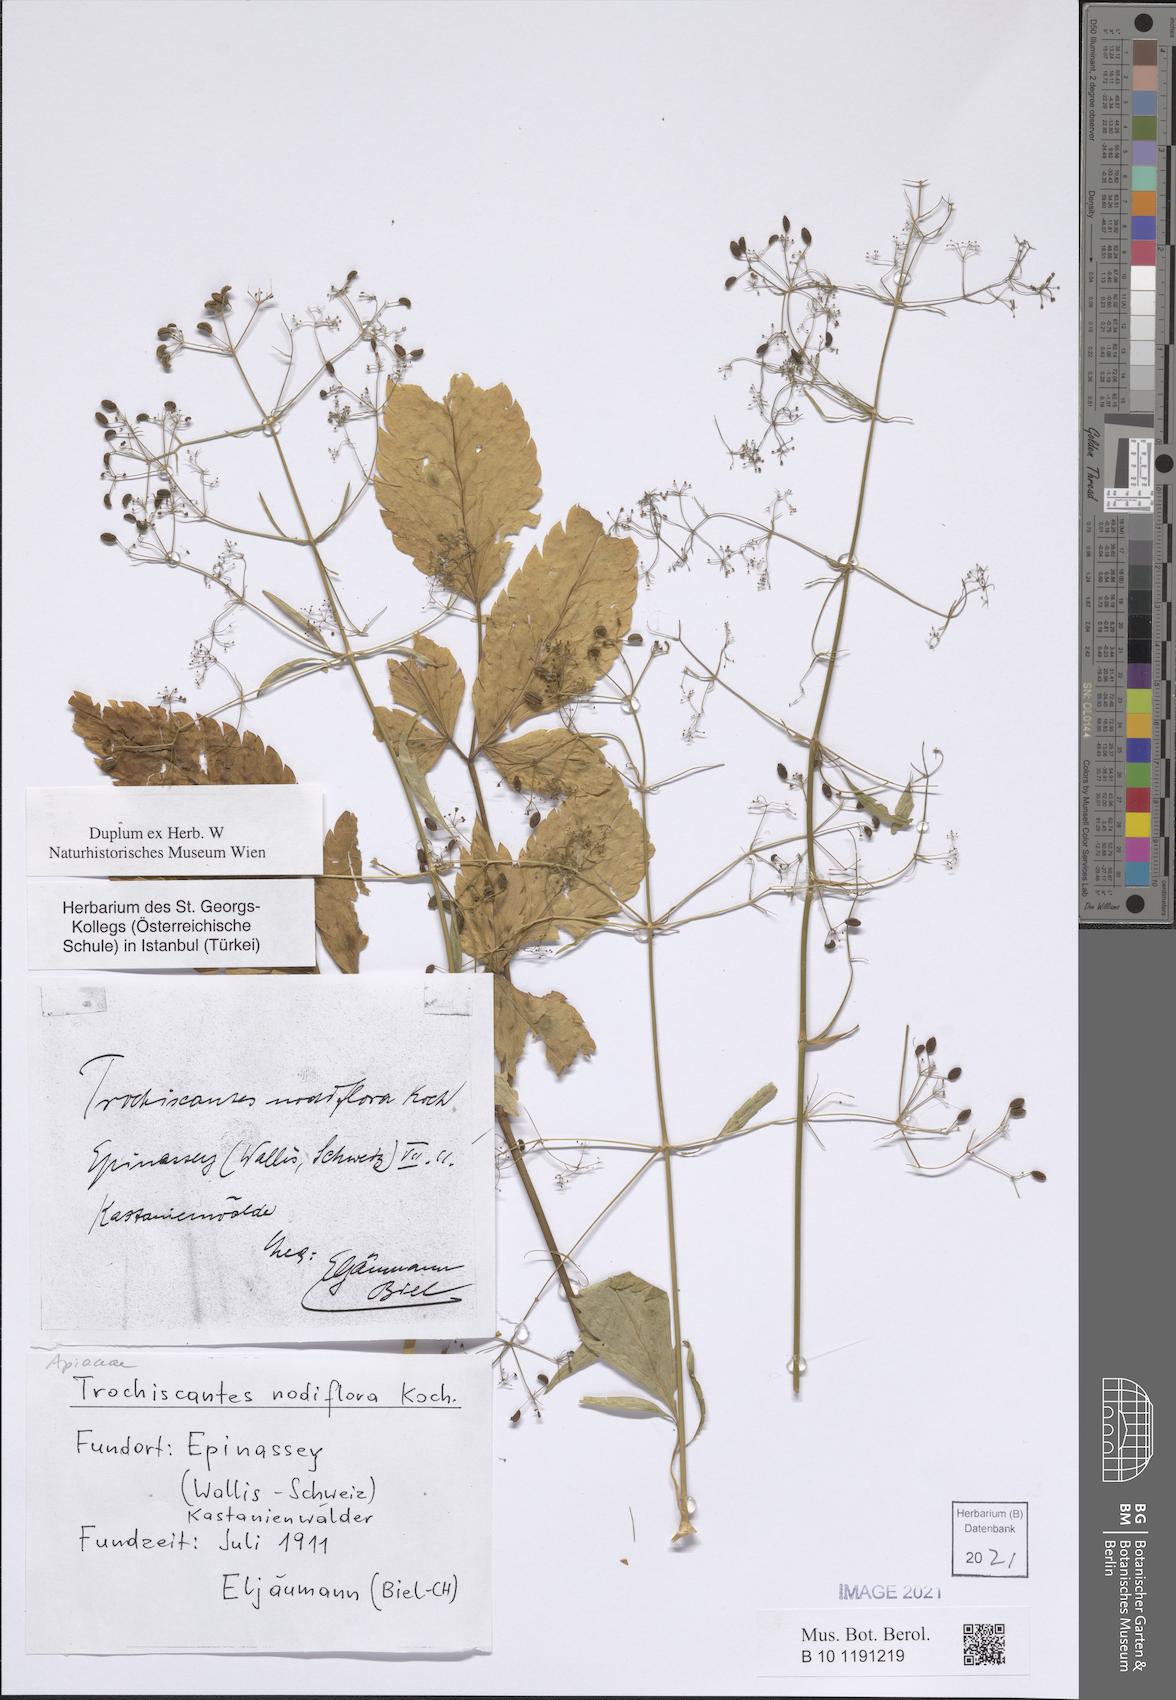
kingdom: Plantae
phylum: Tracheophyta
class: Magnoliopsida
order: Apiales
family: Apiaceae
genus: Trochiscanthes
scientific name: Trochiscanthes nodiflora
